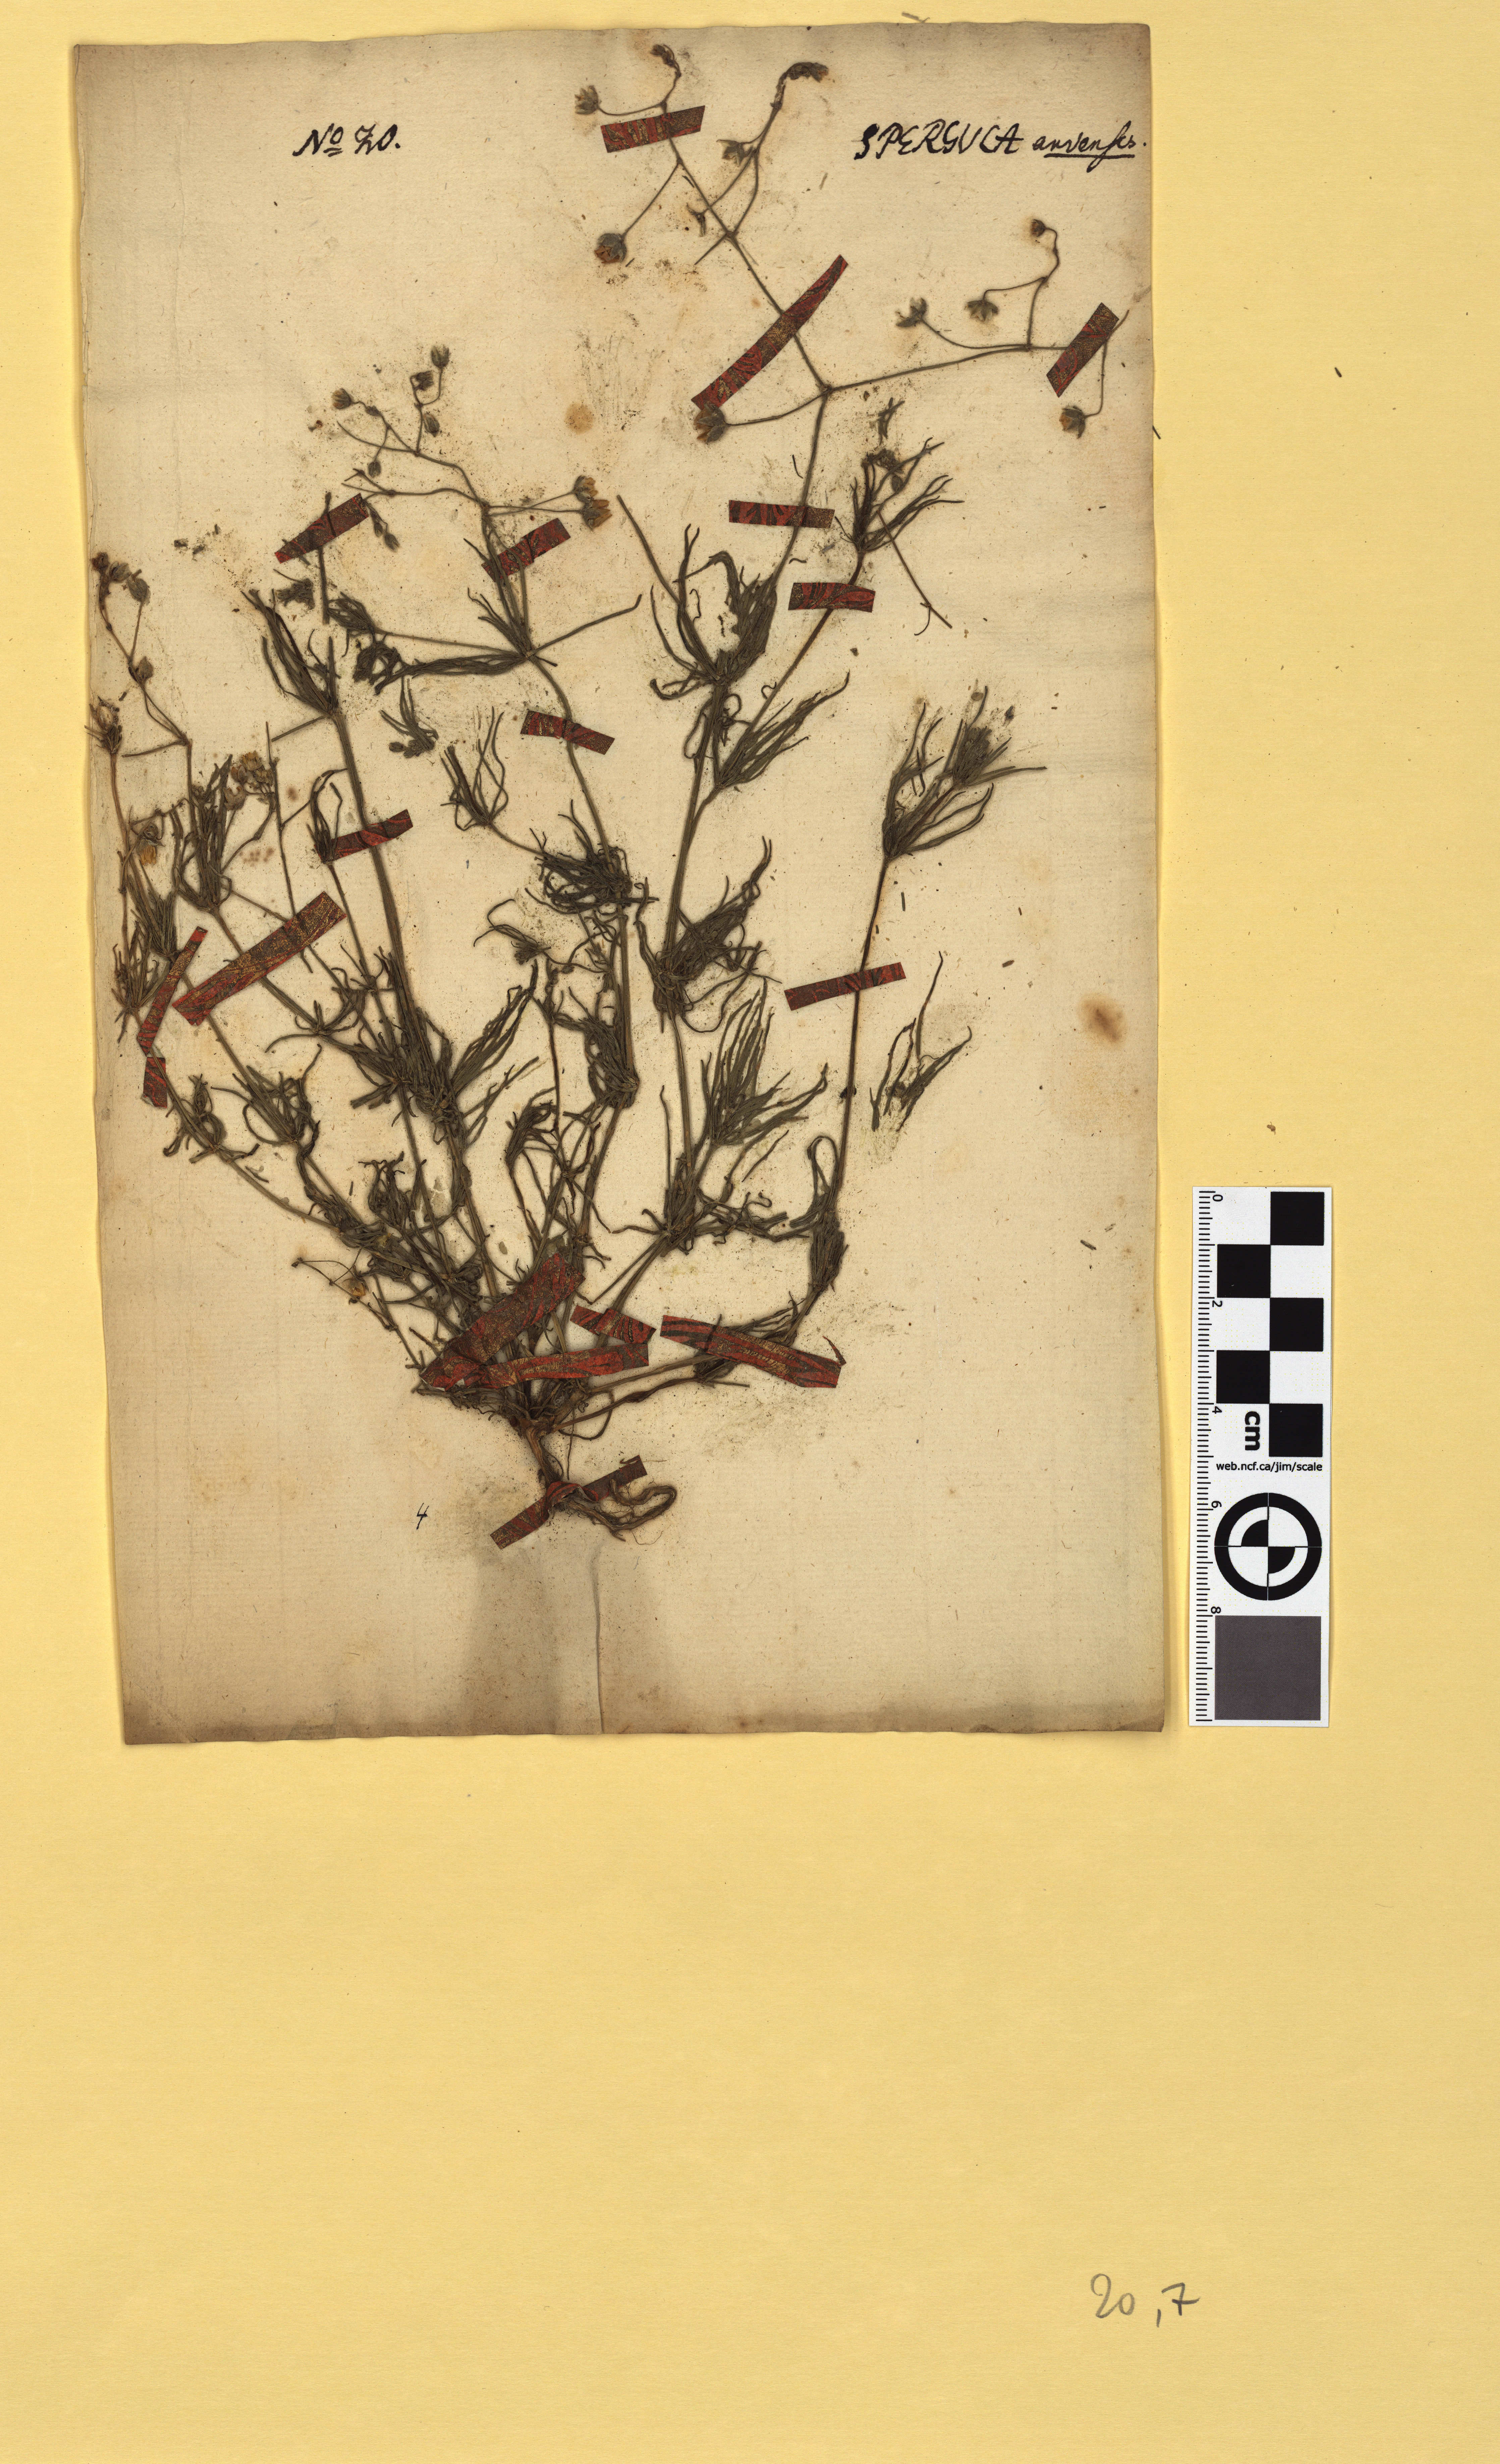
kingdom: Plantae
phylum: Tracheophyta
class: Magnoliopsida
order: Caryophyllales
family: Caryophyllaceae
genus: Spergula
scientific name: Spergula arvensis
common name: Corn spurrey
